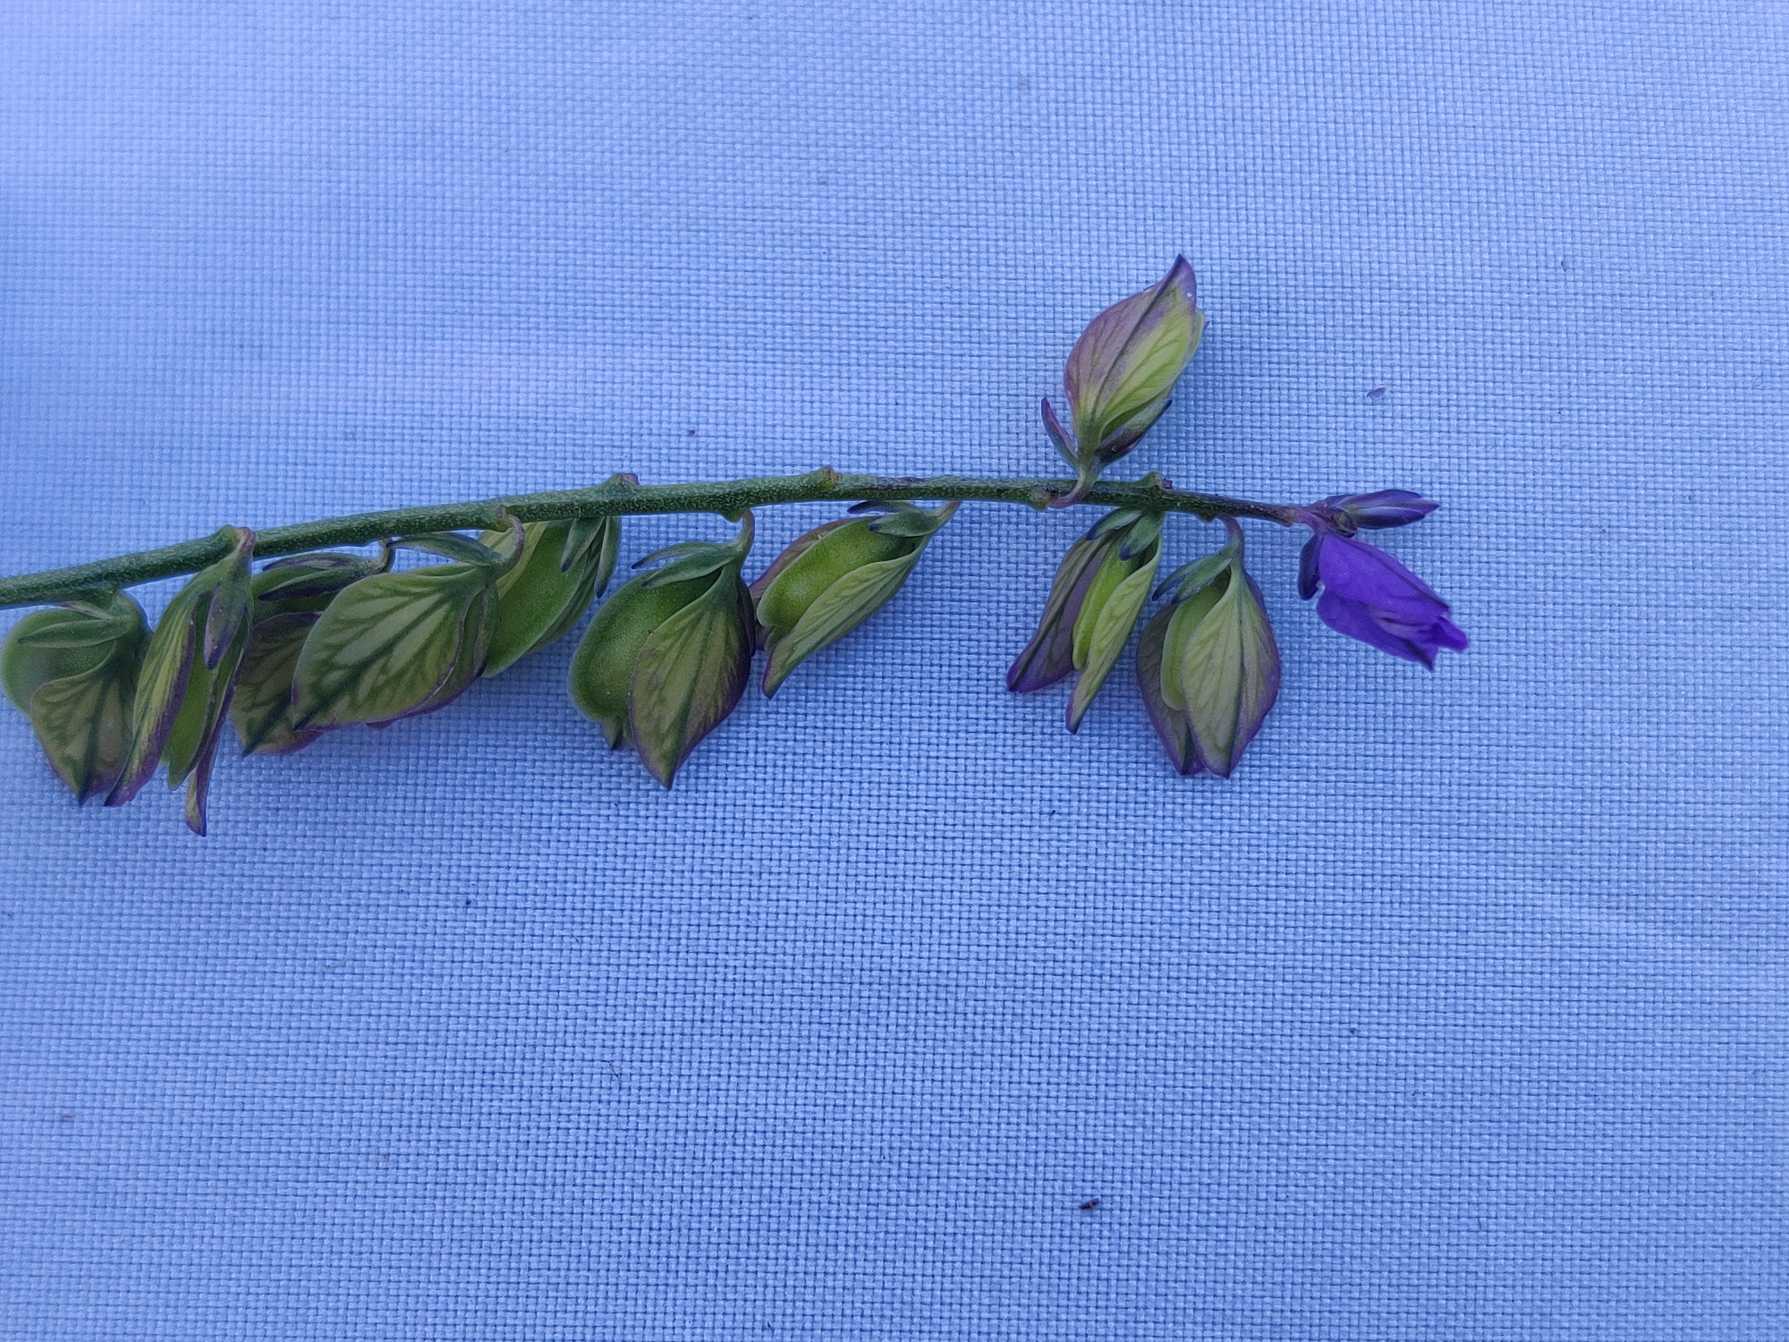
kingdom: Plantae
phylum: Tracheophyta
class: Magnoliopsida
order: Fabales
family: Polygalaceae
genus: Polygala
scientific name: Polygala vulgaris
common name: Almindelig mælkeurt
